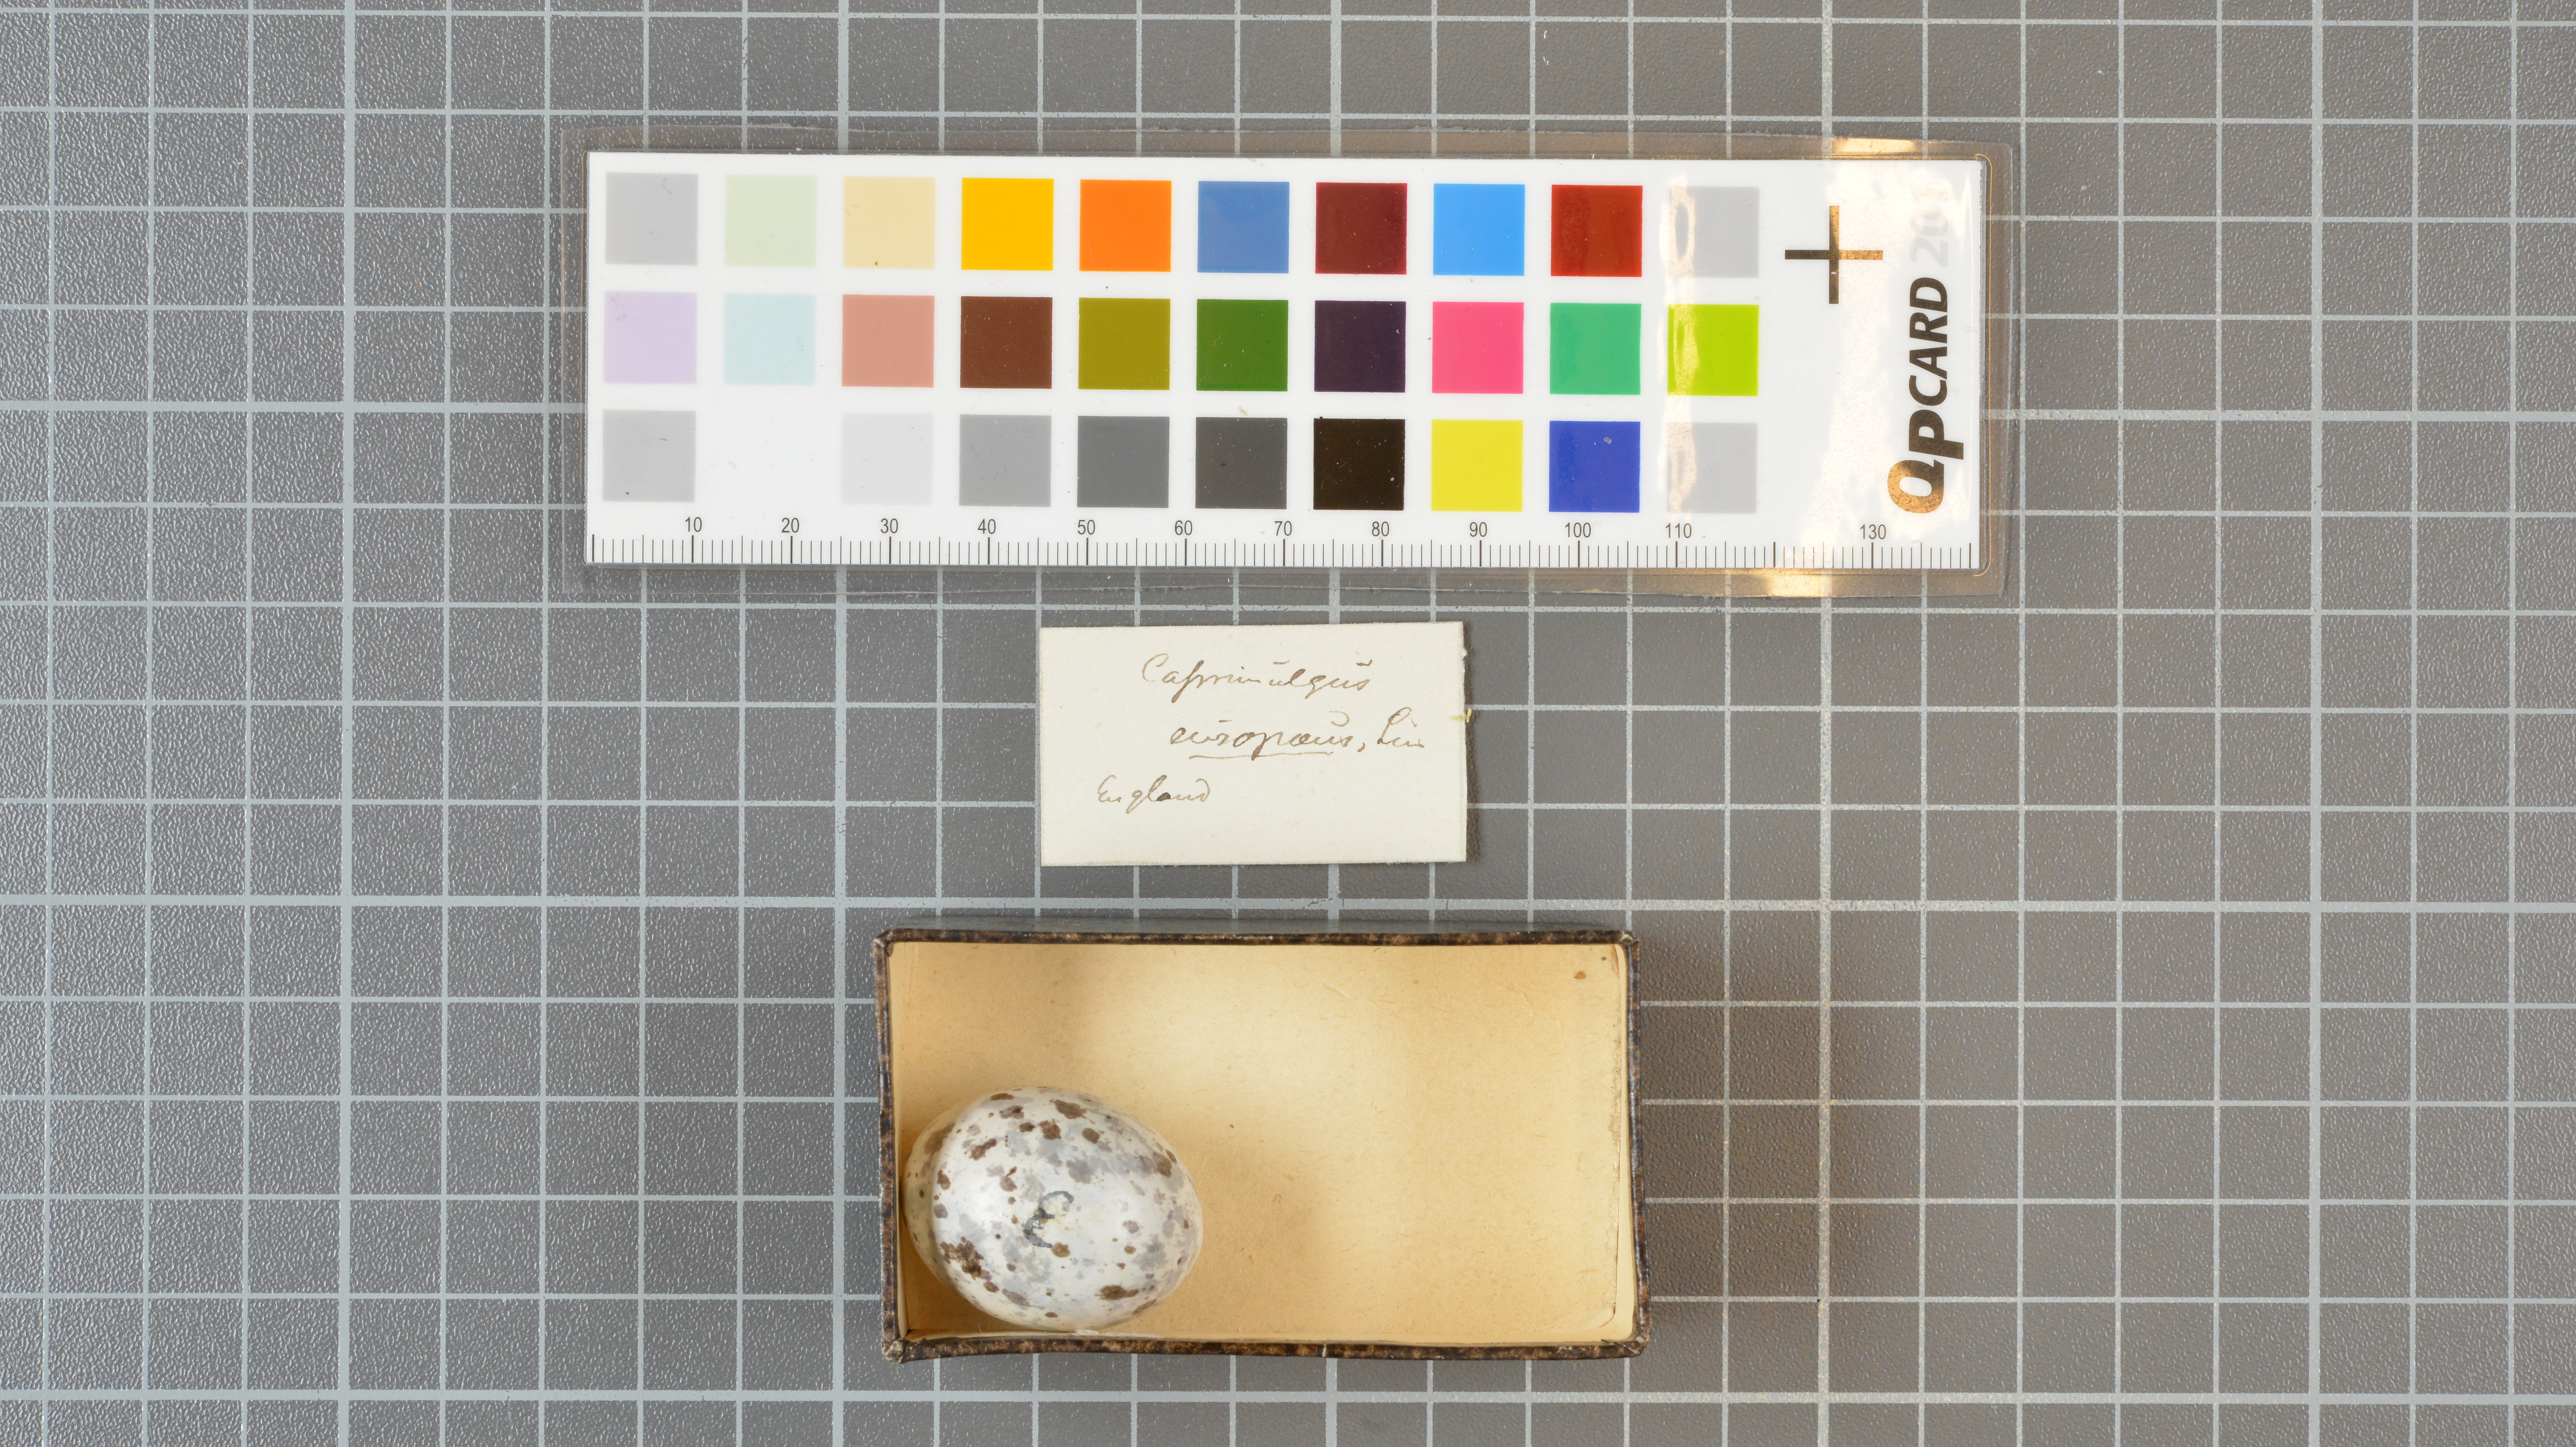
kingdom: Animalia
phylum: Chordata
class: Aves
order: Caprimulgiformes
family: Caprimulgidae
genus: Caprimulgus
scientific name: Caprimulgus europaeus
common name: European nightjar
